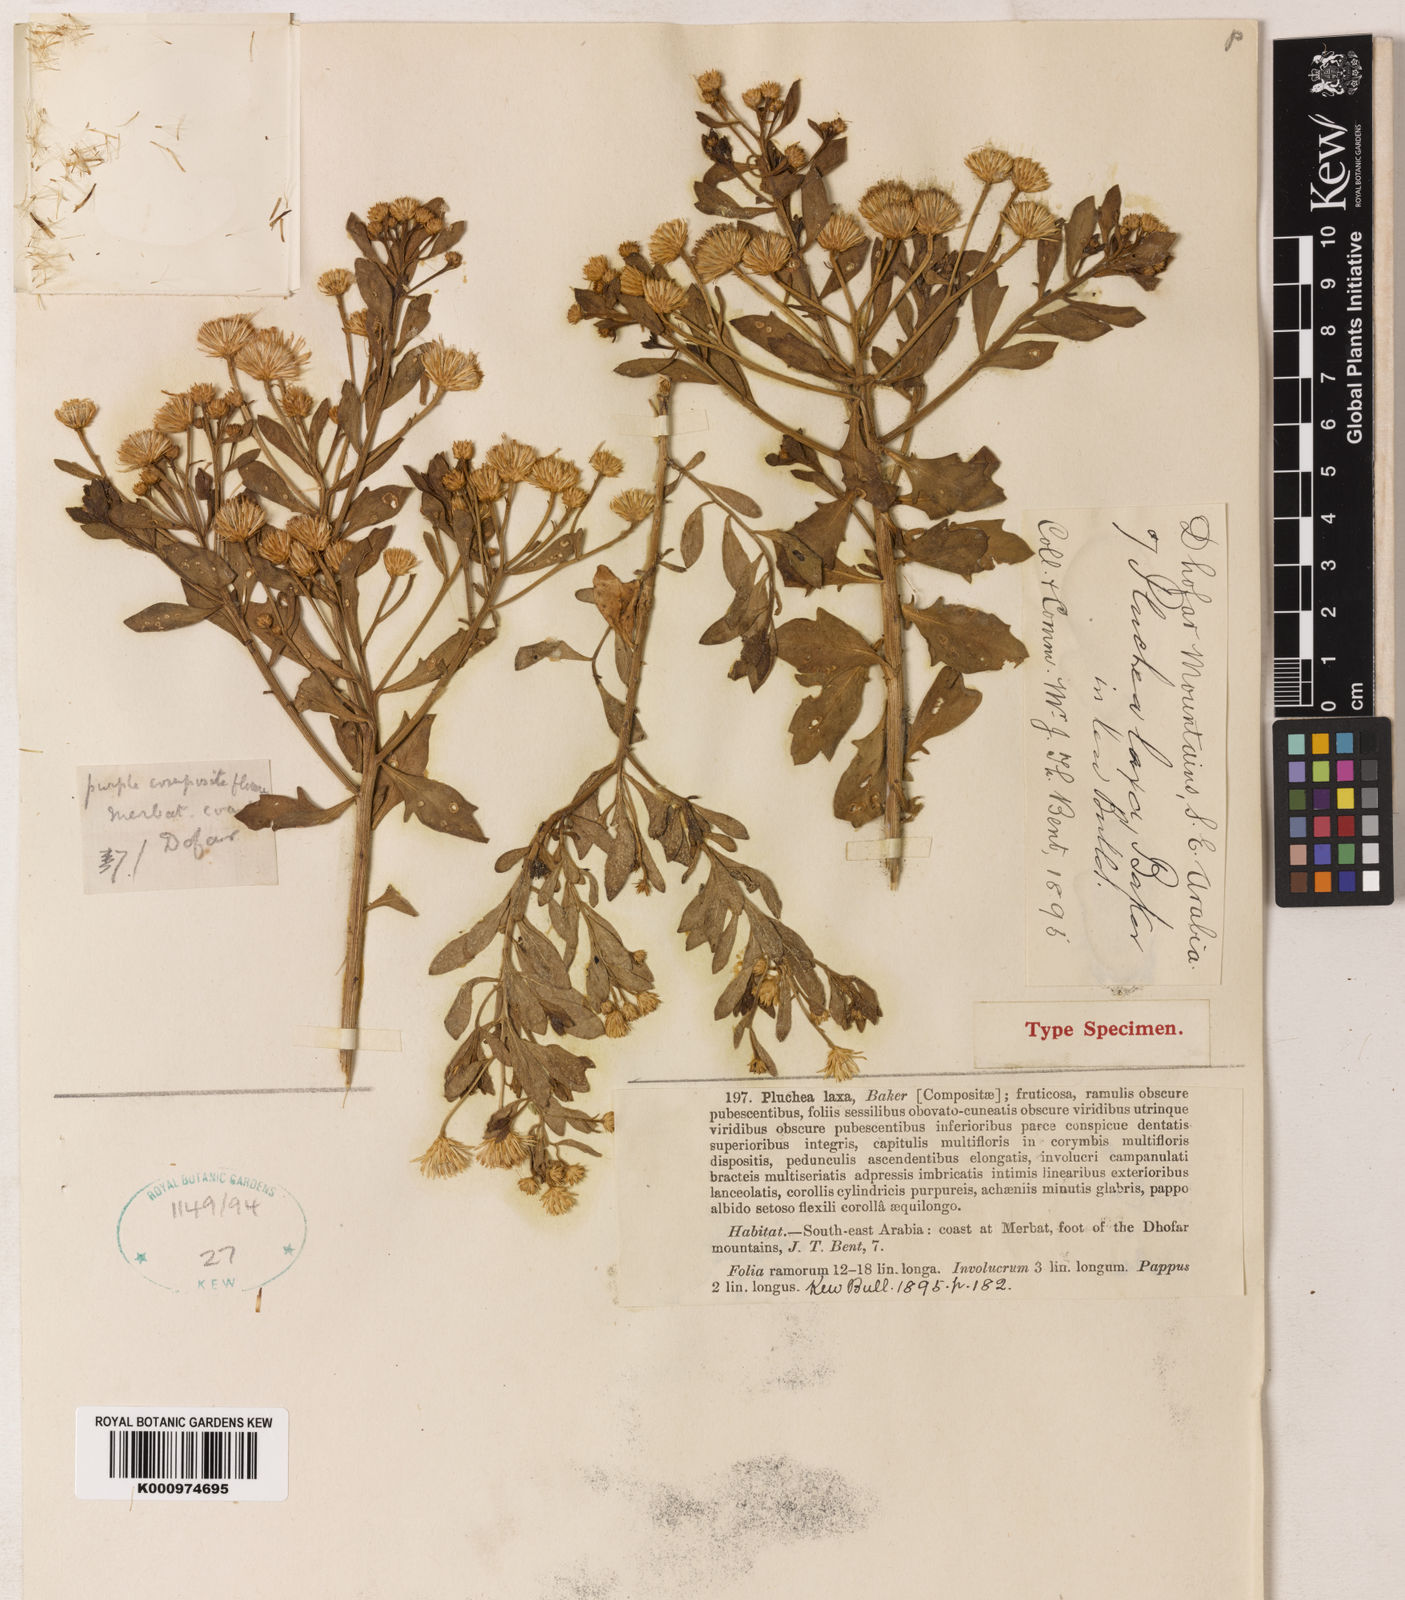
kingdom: Plantae
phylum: Tracheophyta
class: Magnoliopsida
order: Asterales
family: Asteraceae
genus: Pluchea
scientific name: Pluchea arabica
